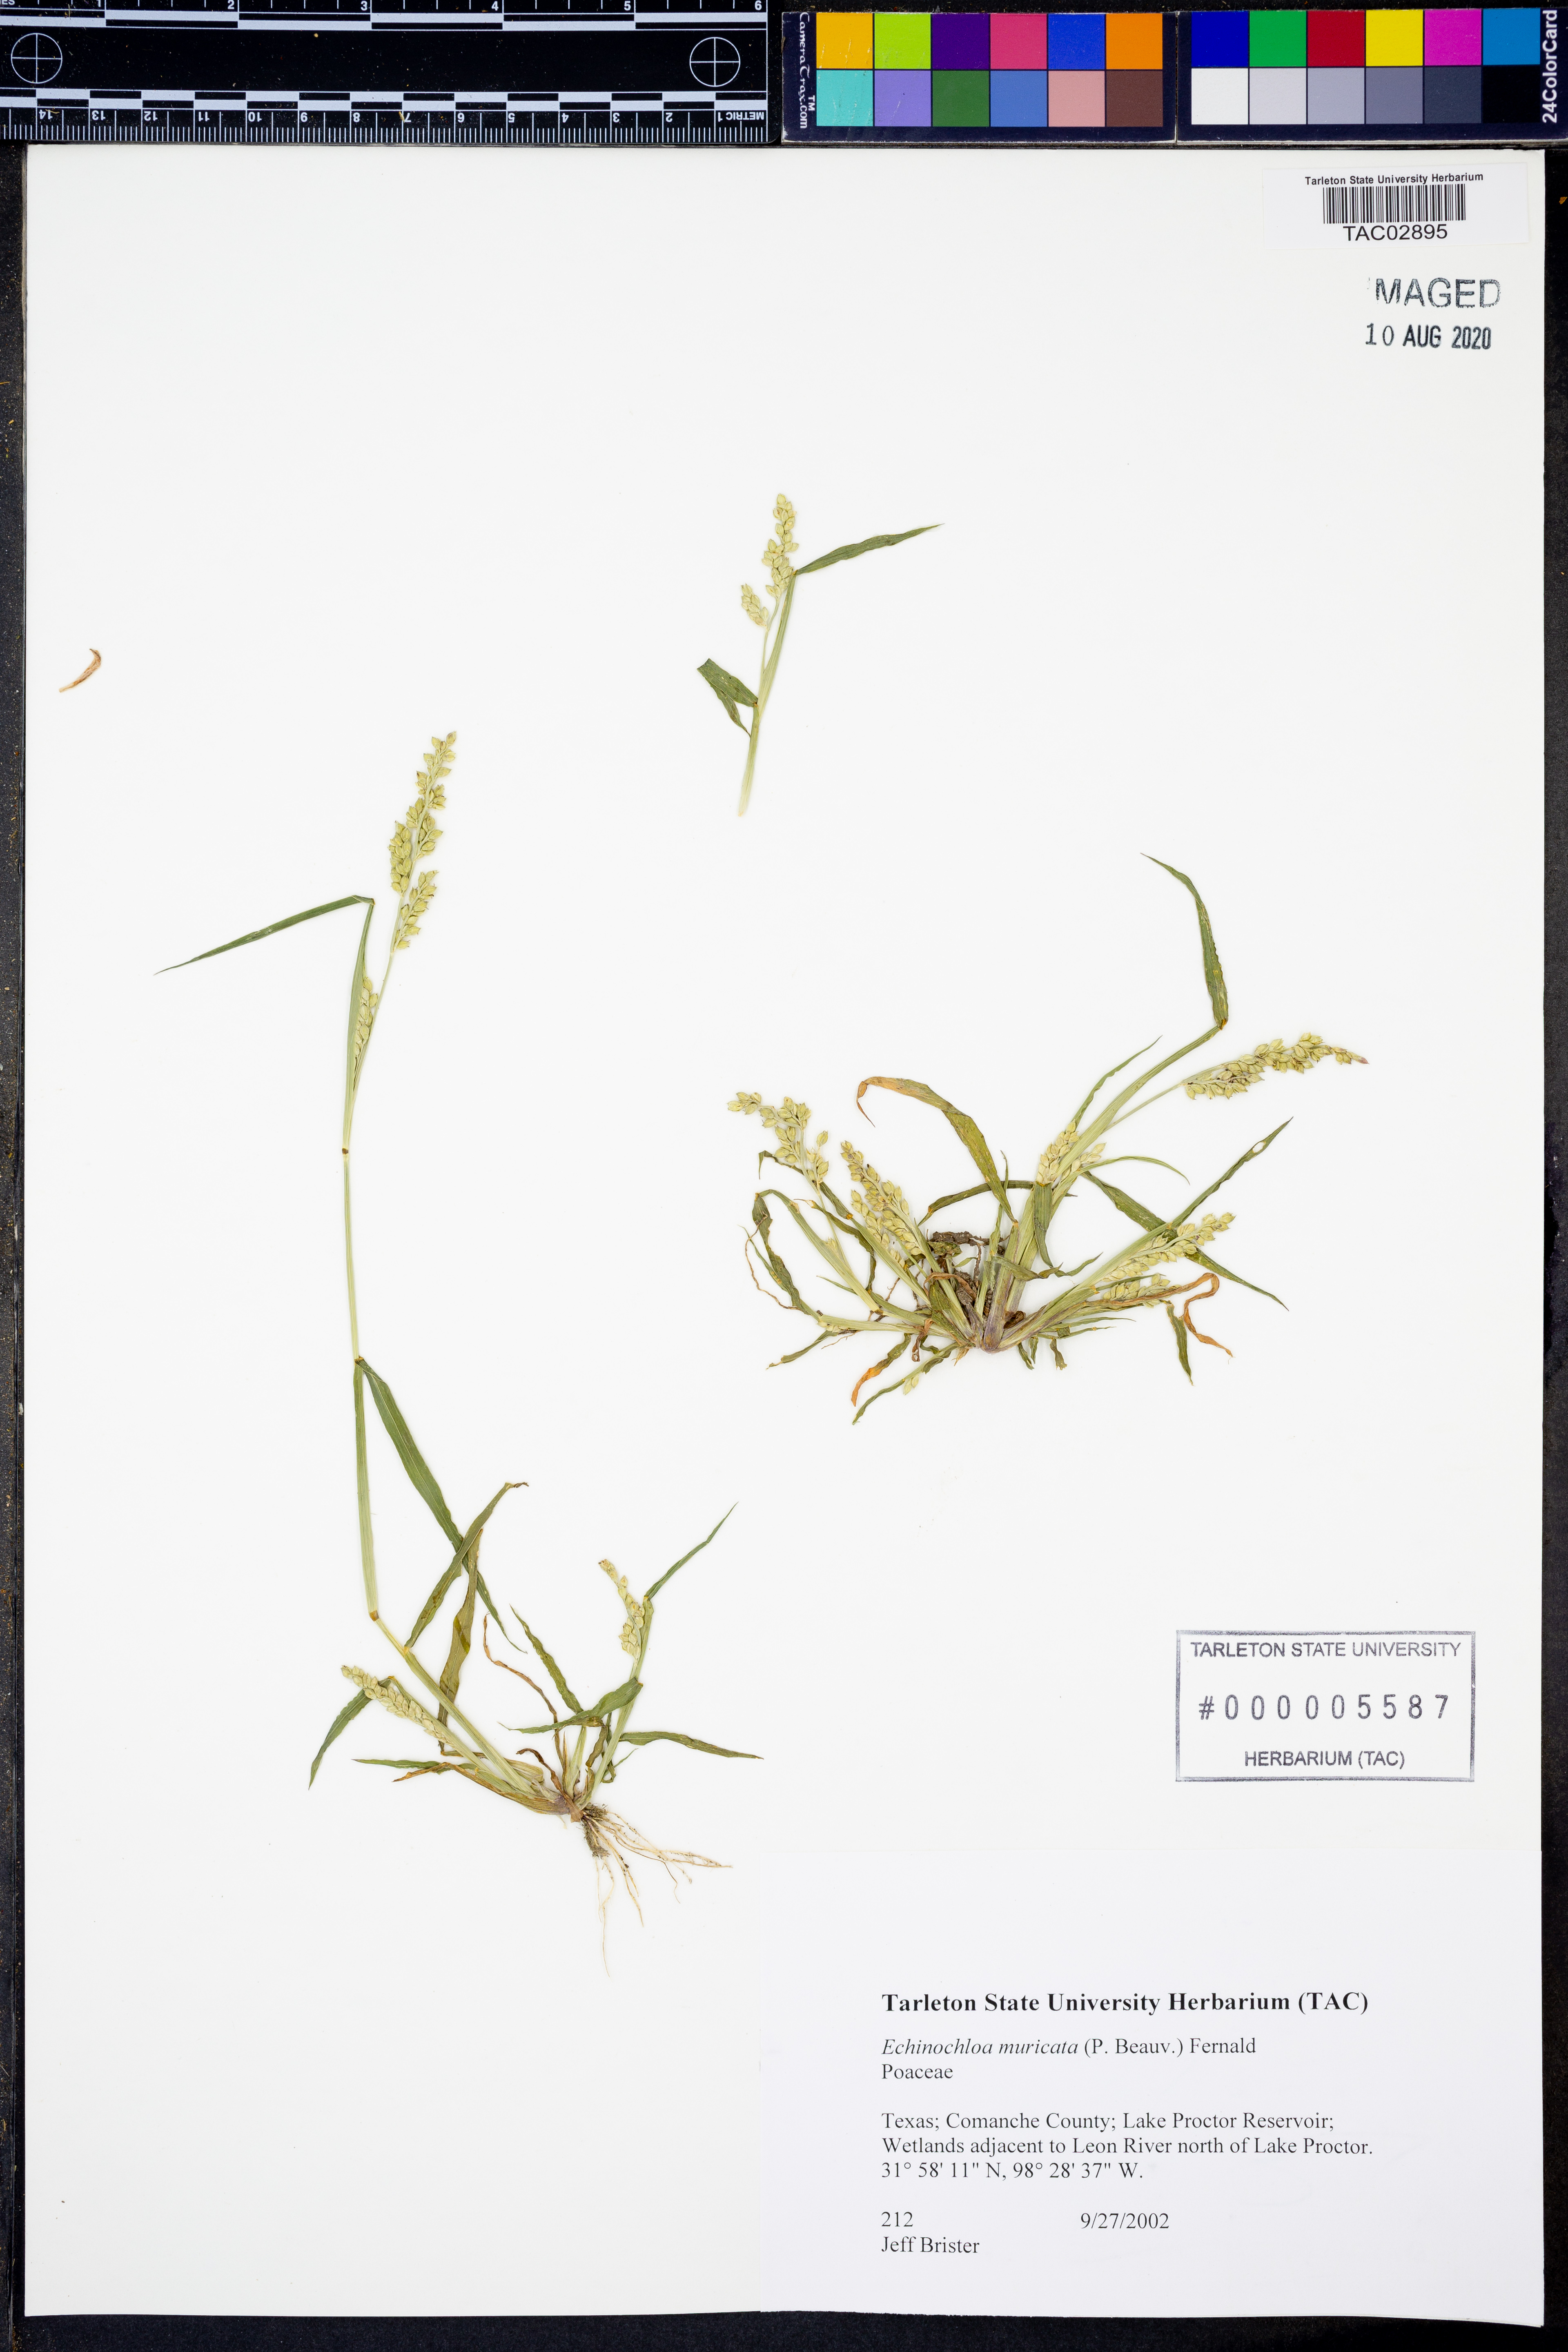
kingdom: Plantae
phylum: Tracheophyta
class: Liliopsida
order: Poales
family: Poaceae
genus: Echinochloa
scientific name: Echinochloa muricata
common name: American barnyard grass
